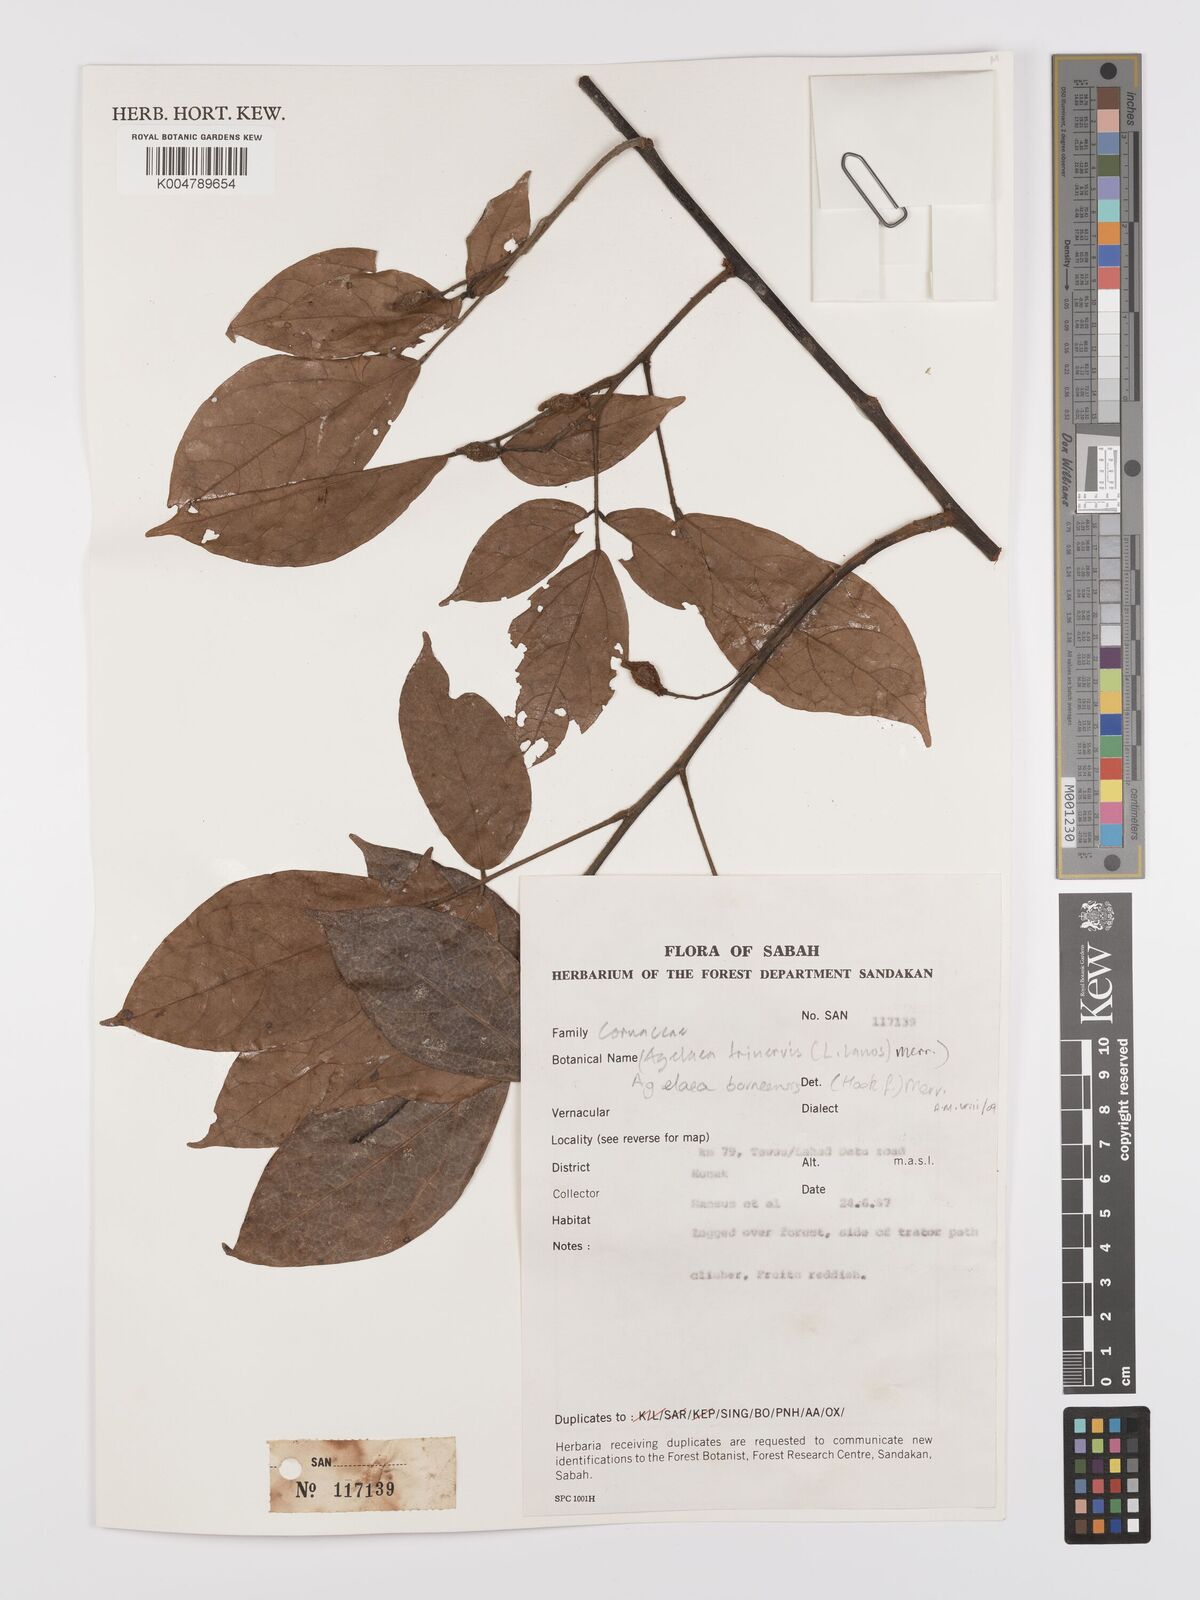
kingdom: Plantae
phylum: Tracheophyta
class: Magnoliopsida
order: Oxalidales
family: Connaraceae
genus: Agelaea
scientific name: Agelaea borneensis
